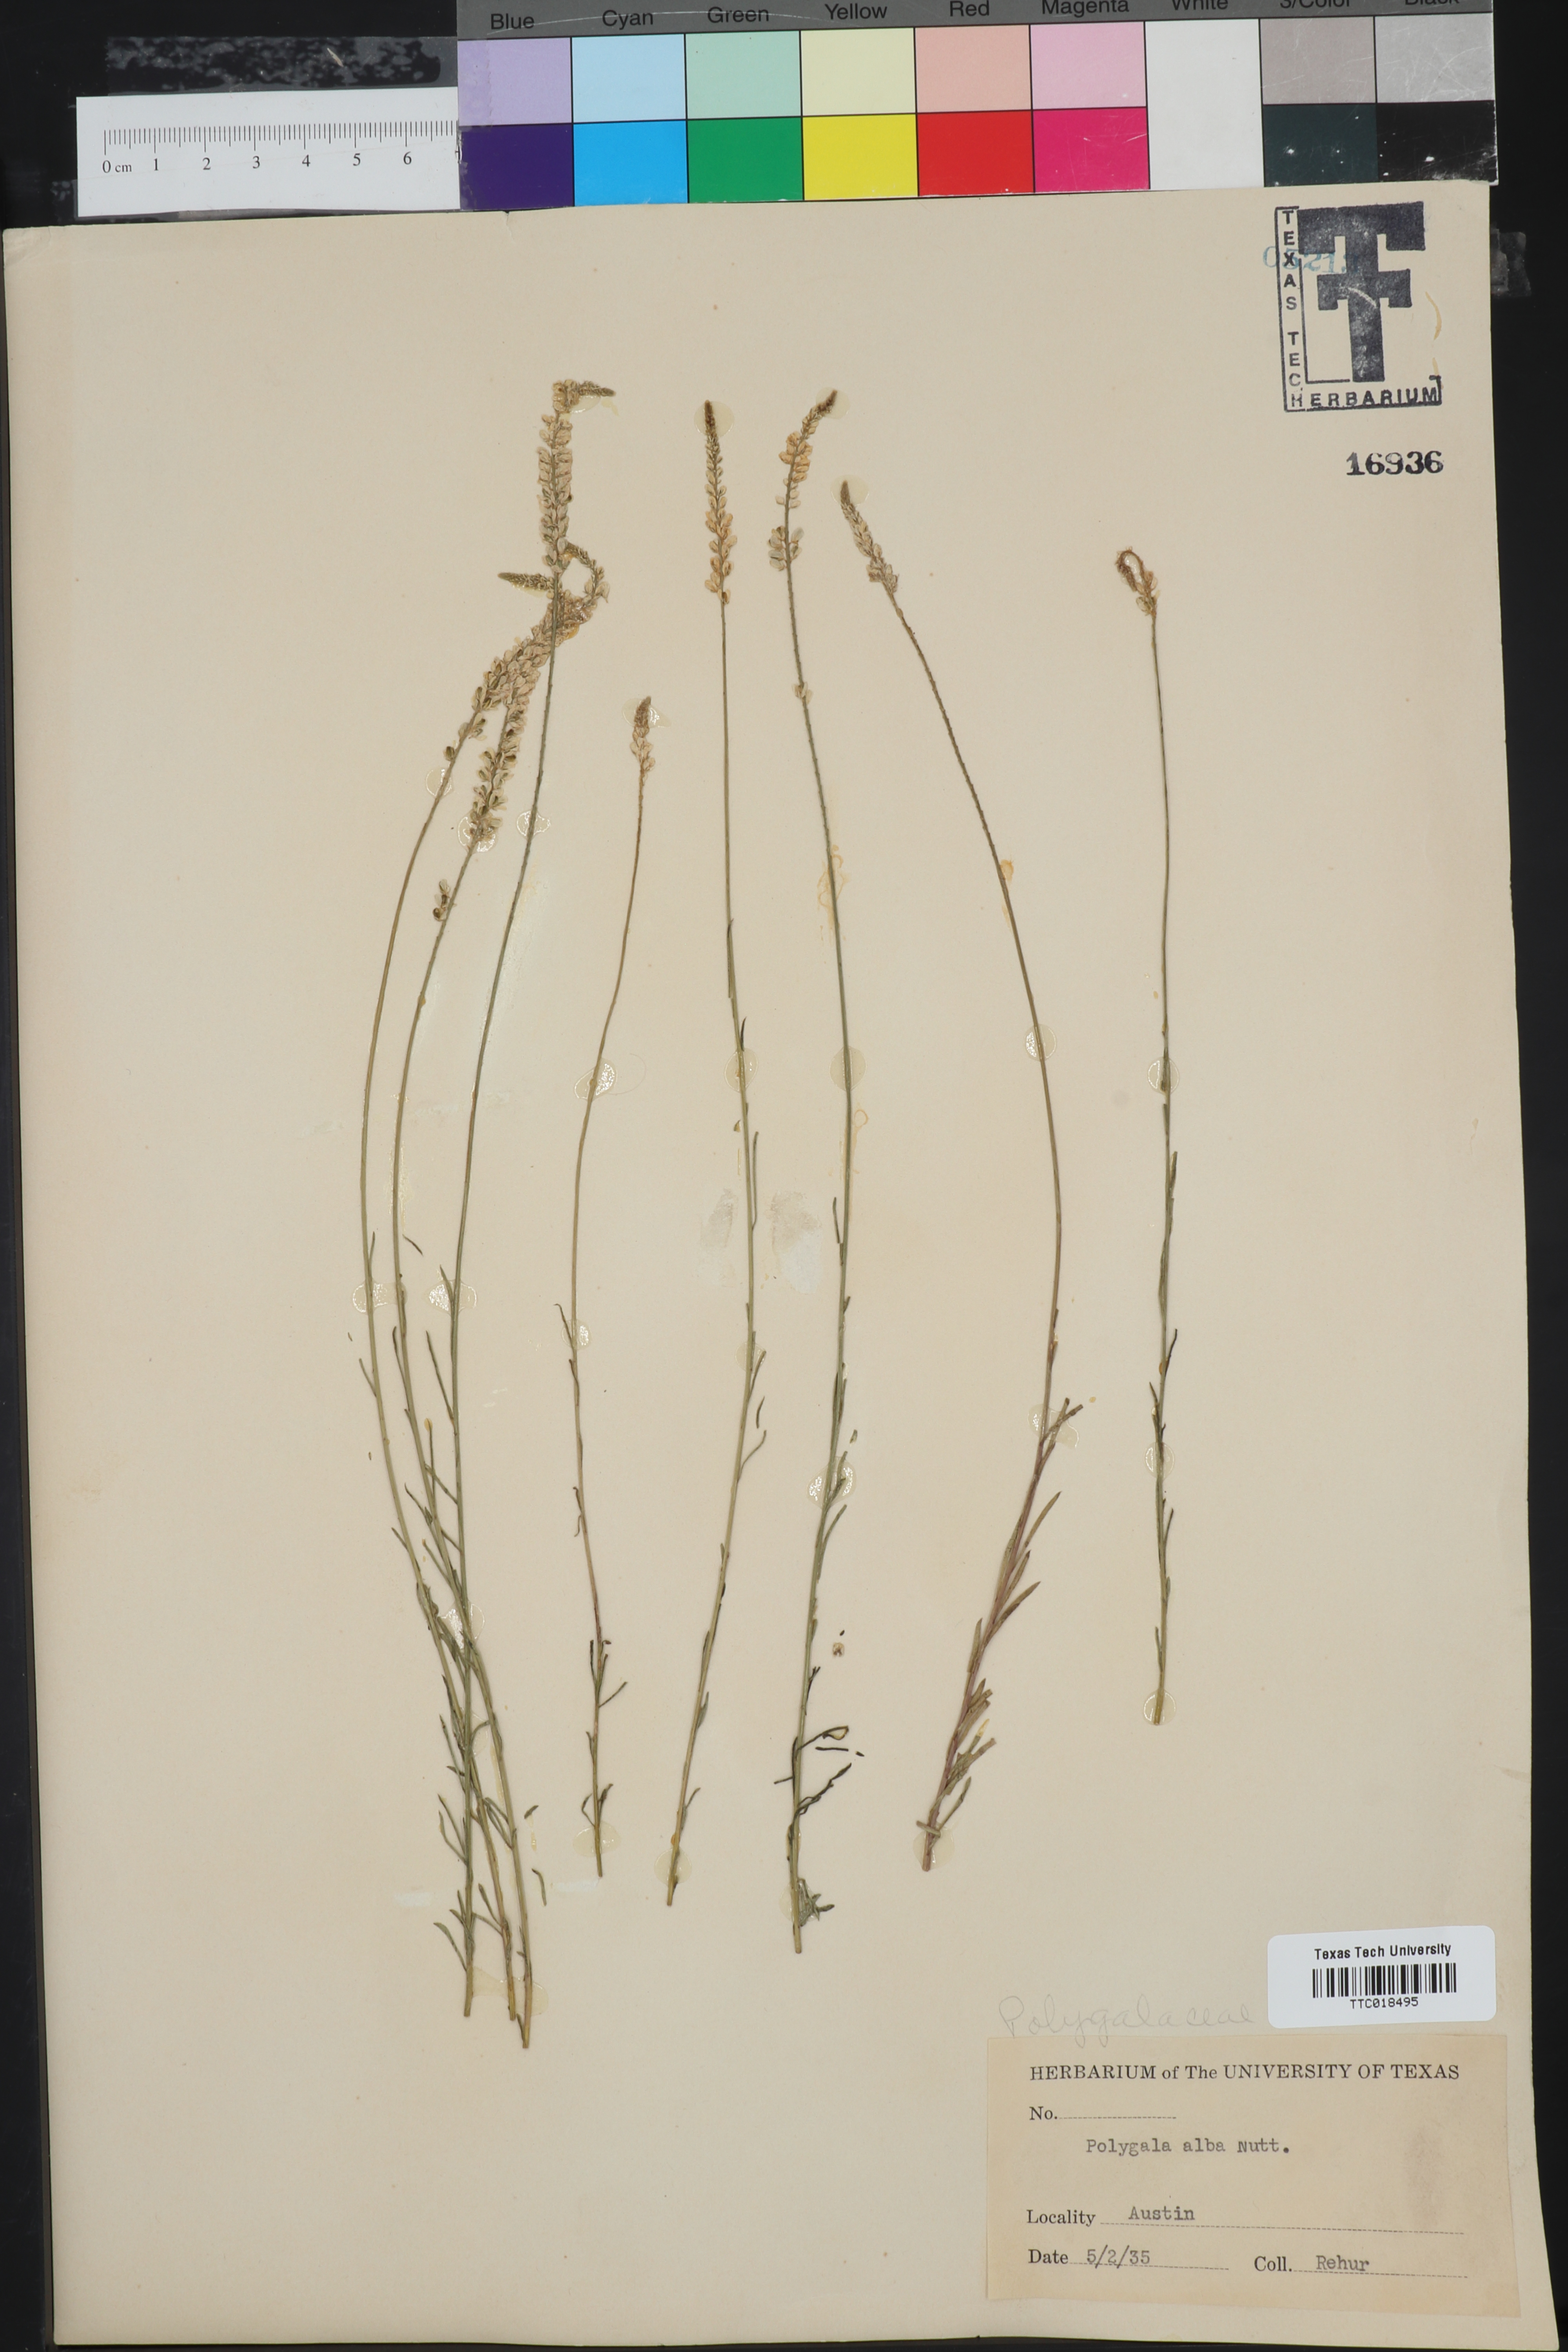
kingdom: Plantae
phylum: Tracheophyta
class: Magnoliopsida
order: Fabales
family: Polygalaceae
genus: Polygala
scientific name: Polygala alba
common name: White milkwort
